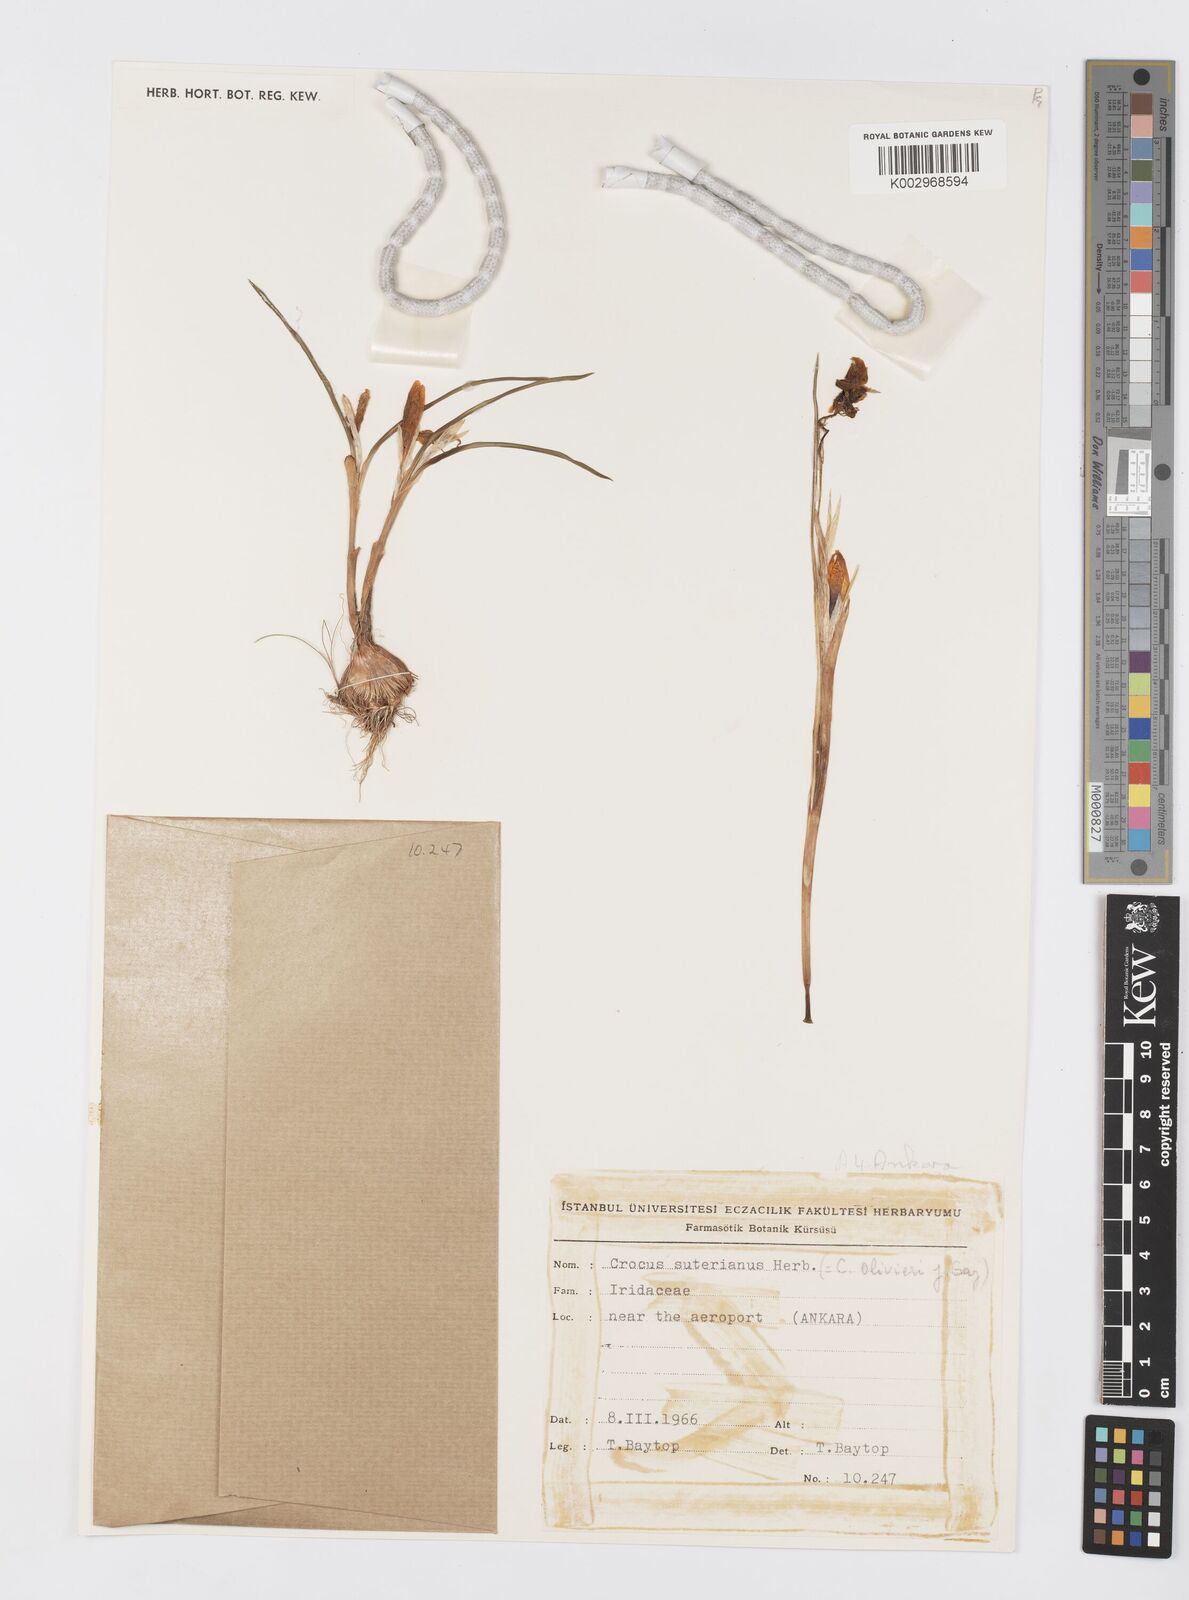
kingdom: Plantae
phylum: Tracheophyta
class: Liliopsida
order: Asparagales
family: Iridaceae
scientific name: Iridaceae
